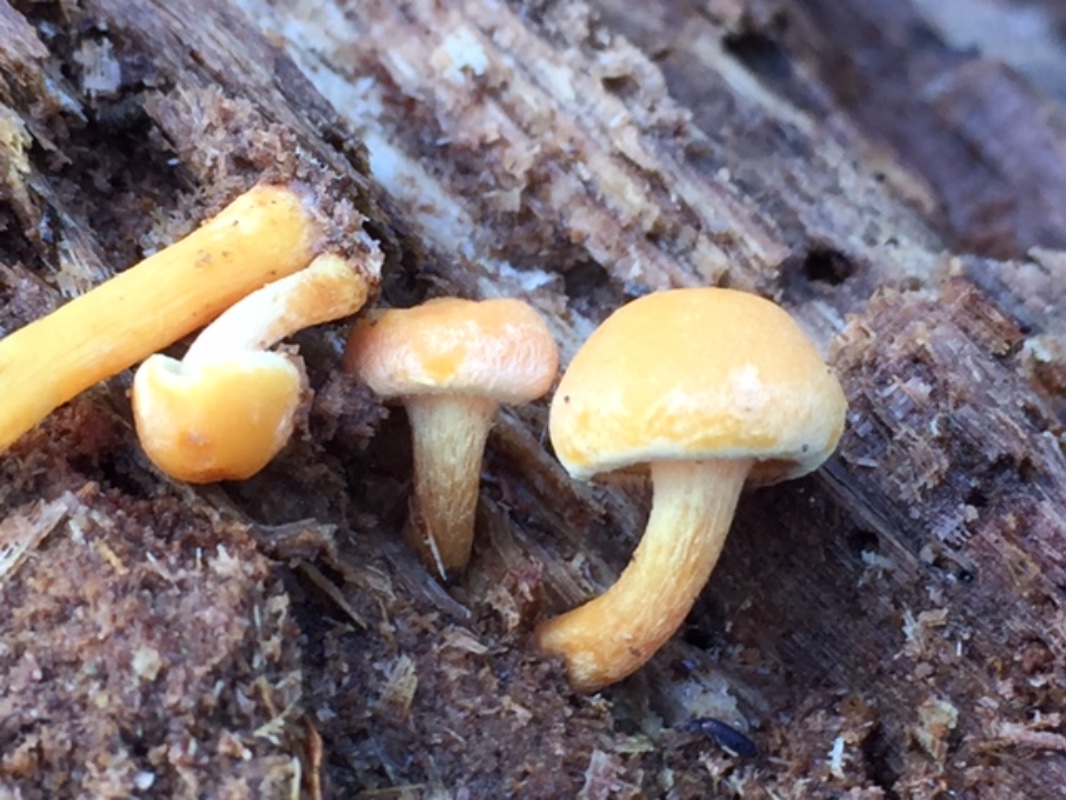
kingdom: Fungi
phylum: Basidiomycota
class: Agaricomycetes
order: Agaricales
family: Strophariaceae
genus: Hypholoma
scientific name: Hypholoma fasciculare
